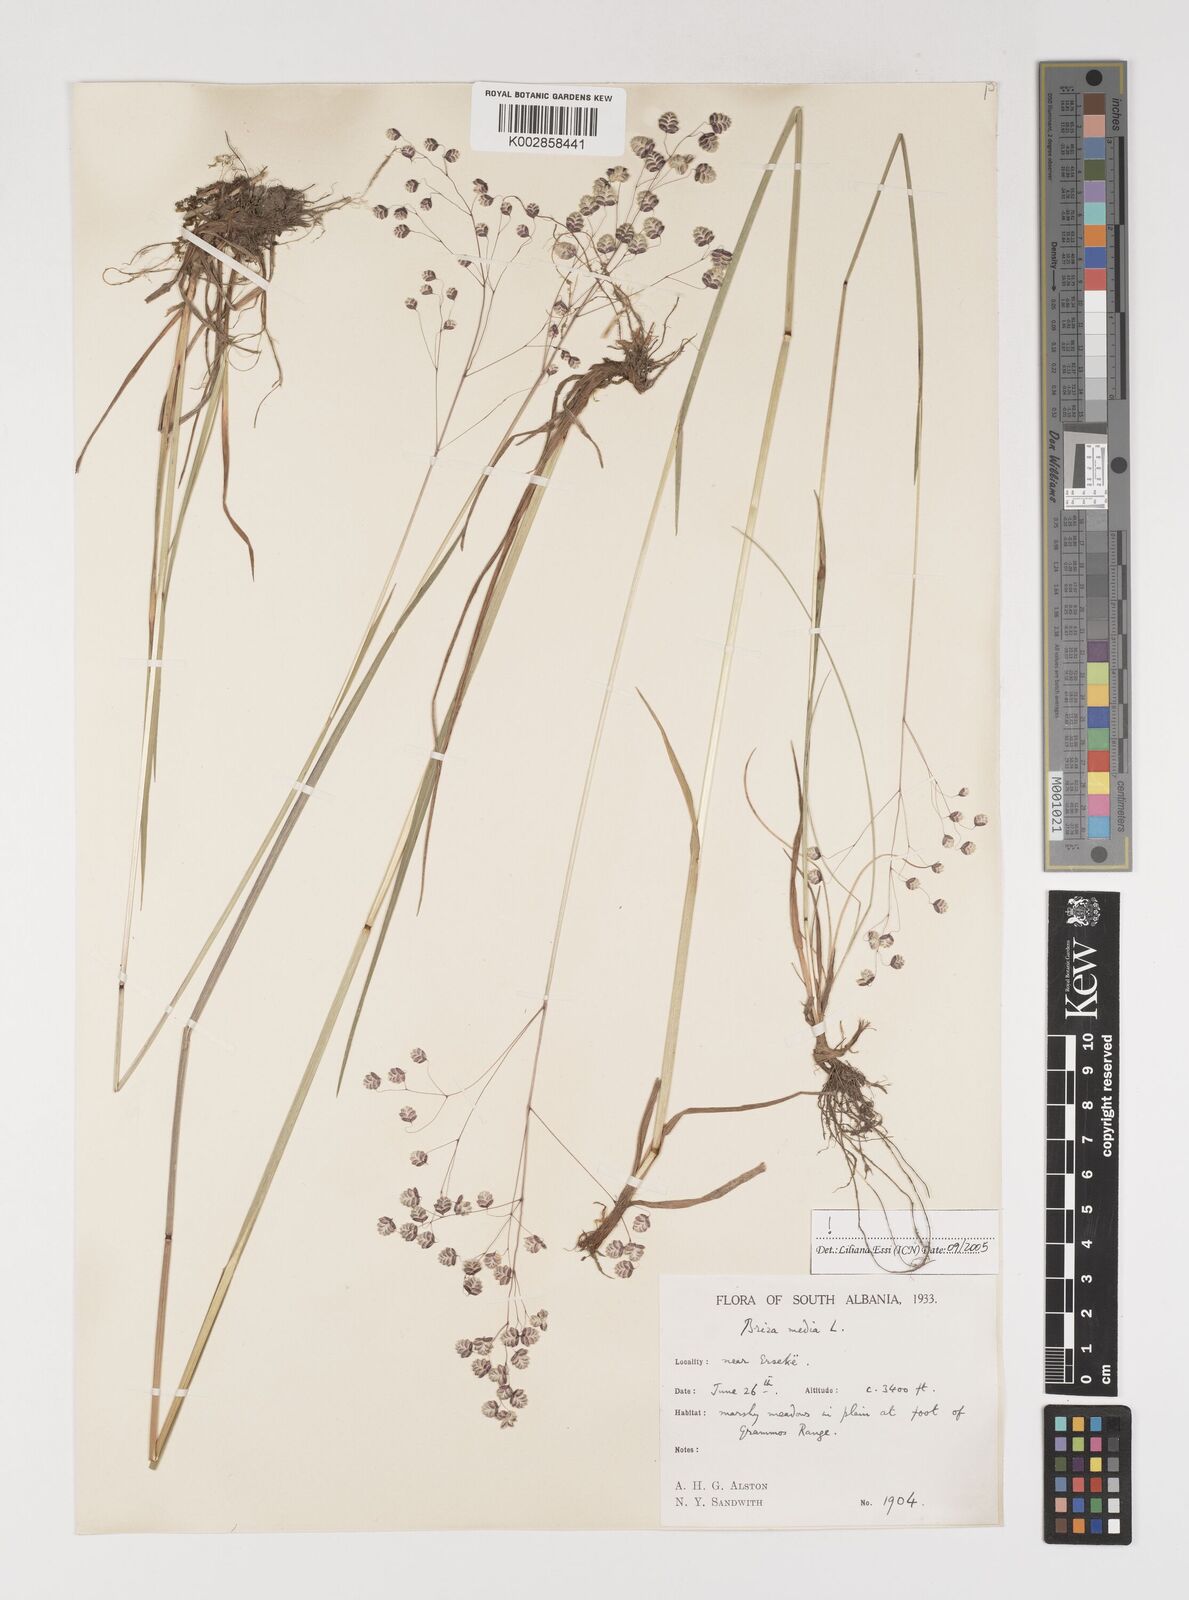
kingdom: Plantae
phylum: Tracheophyta
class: Liliopsida
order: Poales
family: Poaceae
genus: Briza
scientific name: Briza media
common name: Quaking grass
